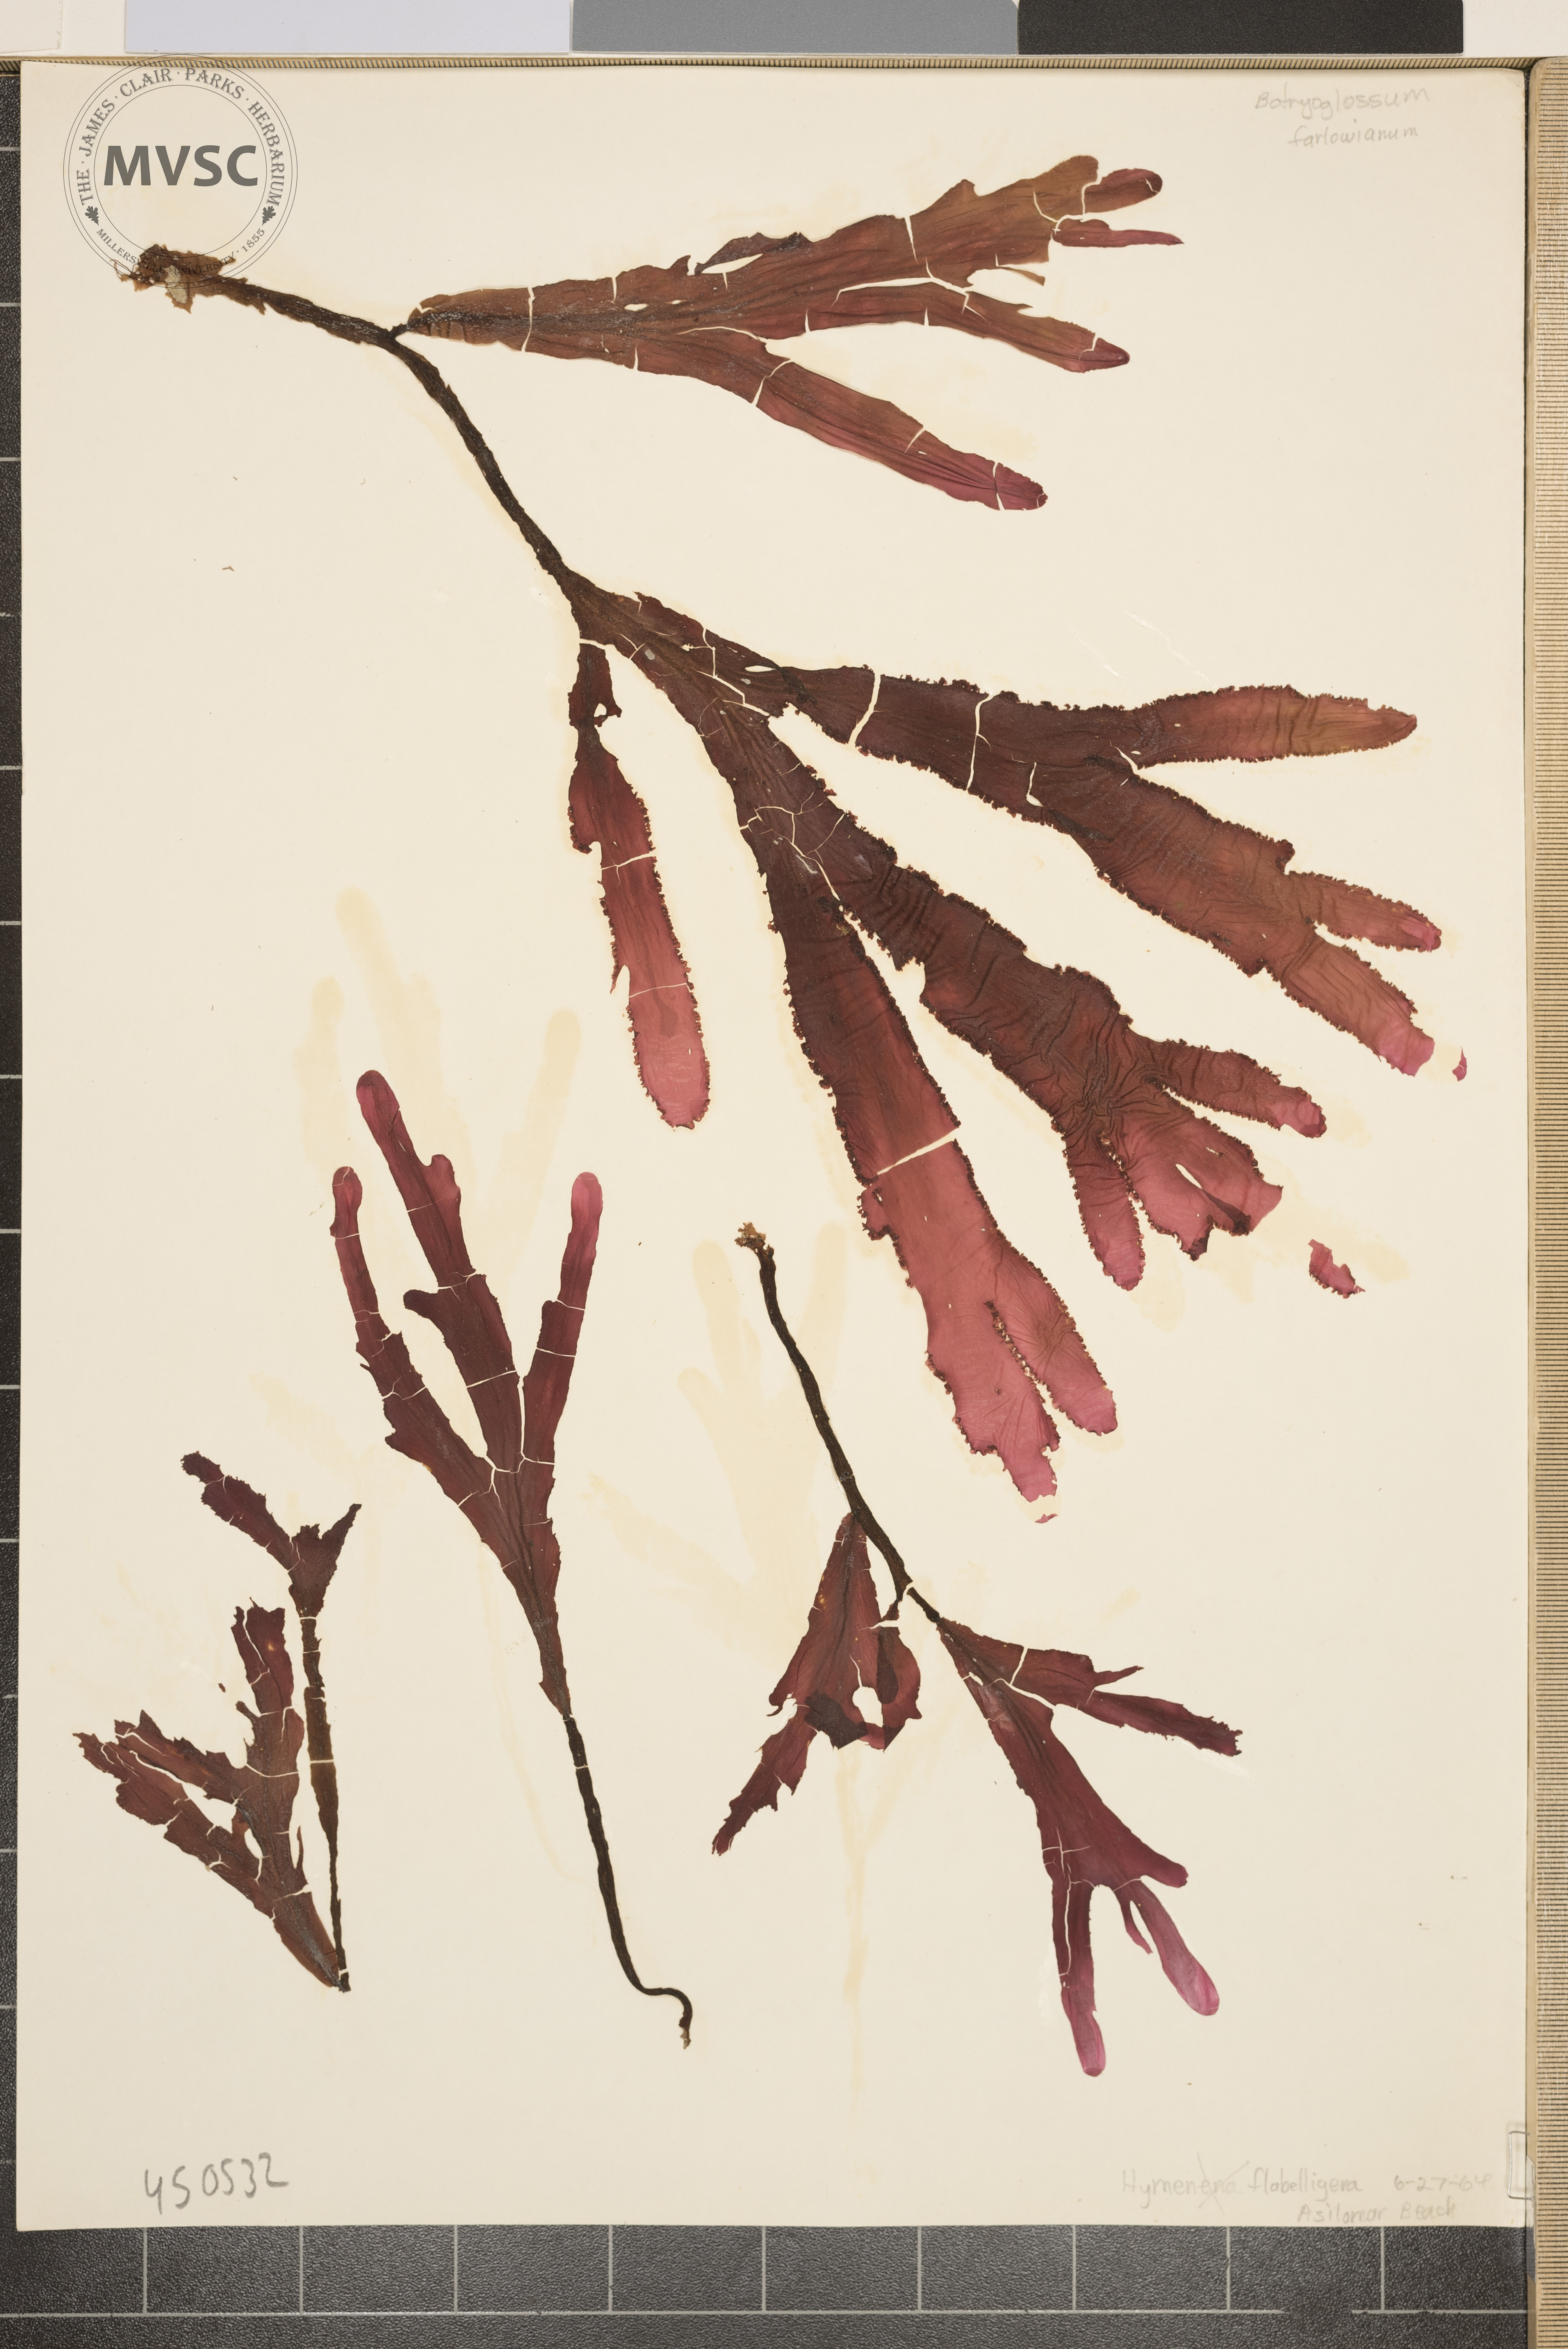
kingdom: Plantae
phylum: Rhodophyta
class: Florideophyceae
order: Ceramiales
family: Delesseriaceae
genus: Botryoglossum
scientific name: Botryoglossum farlowianum
